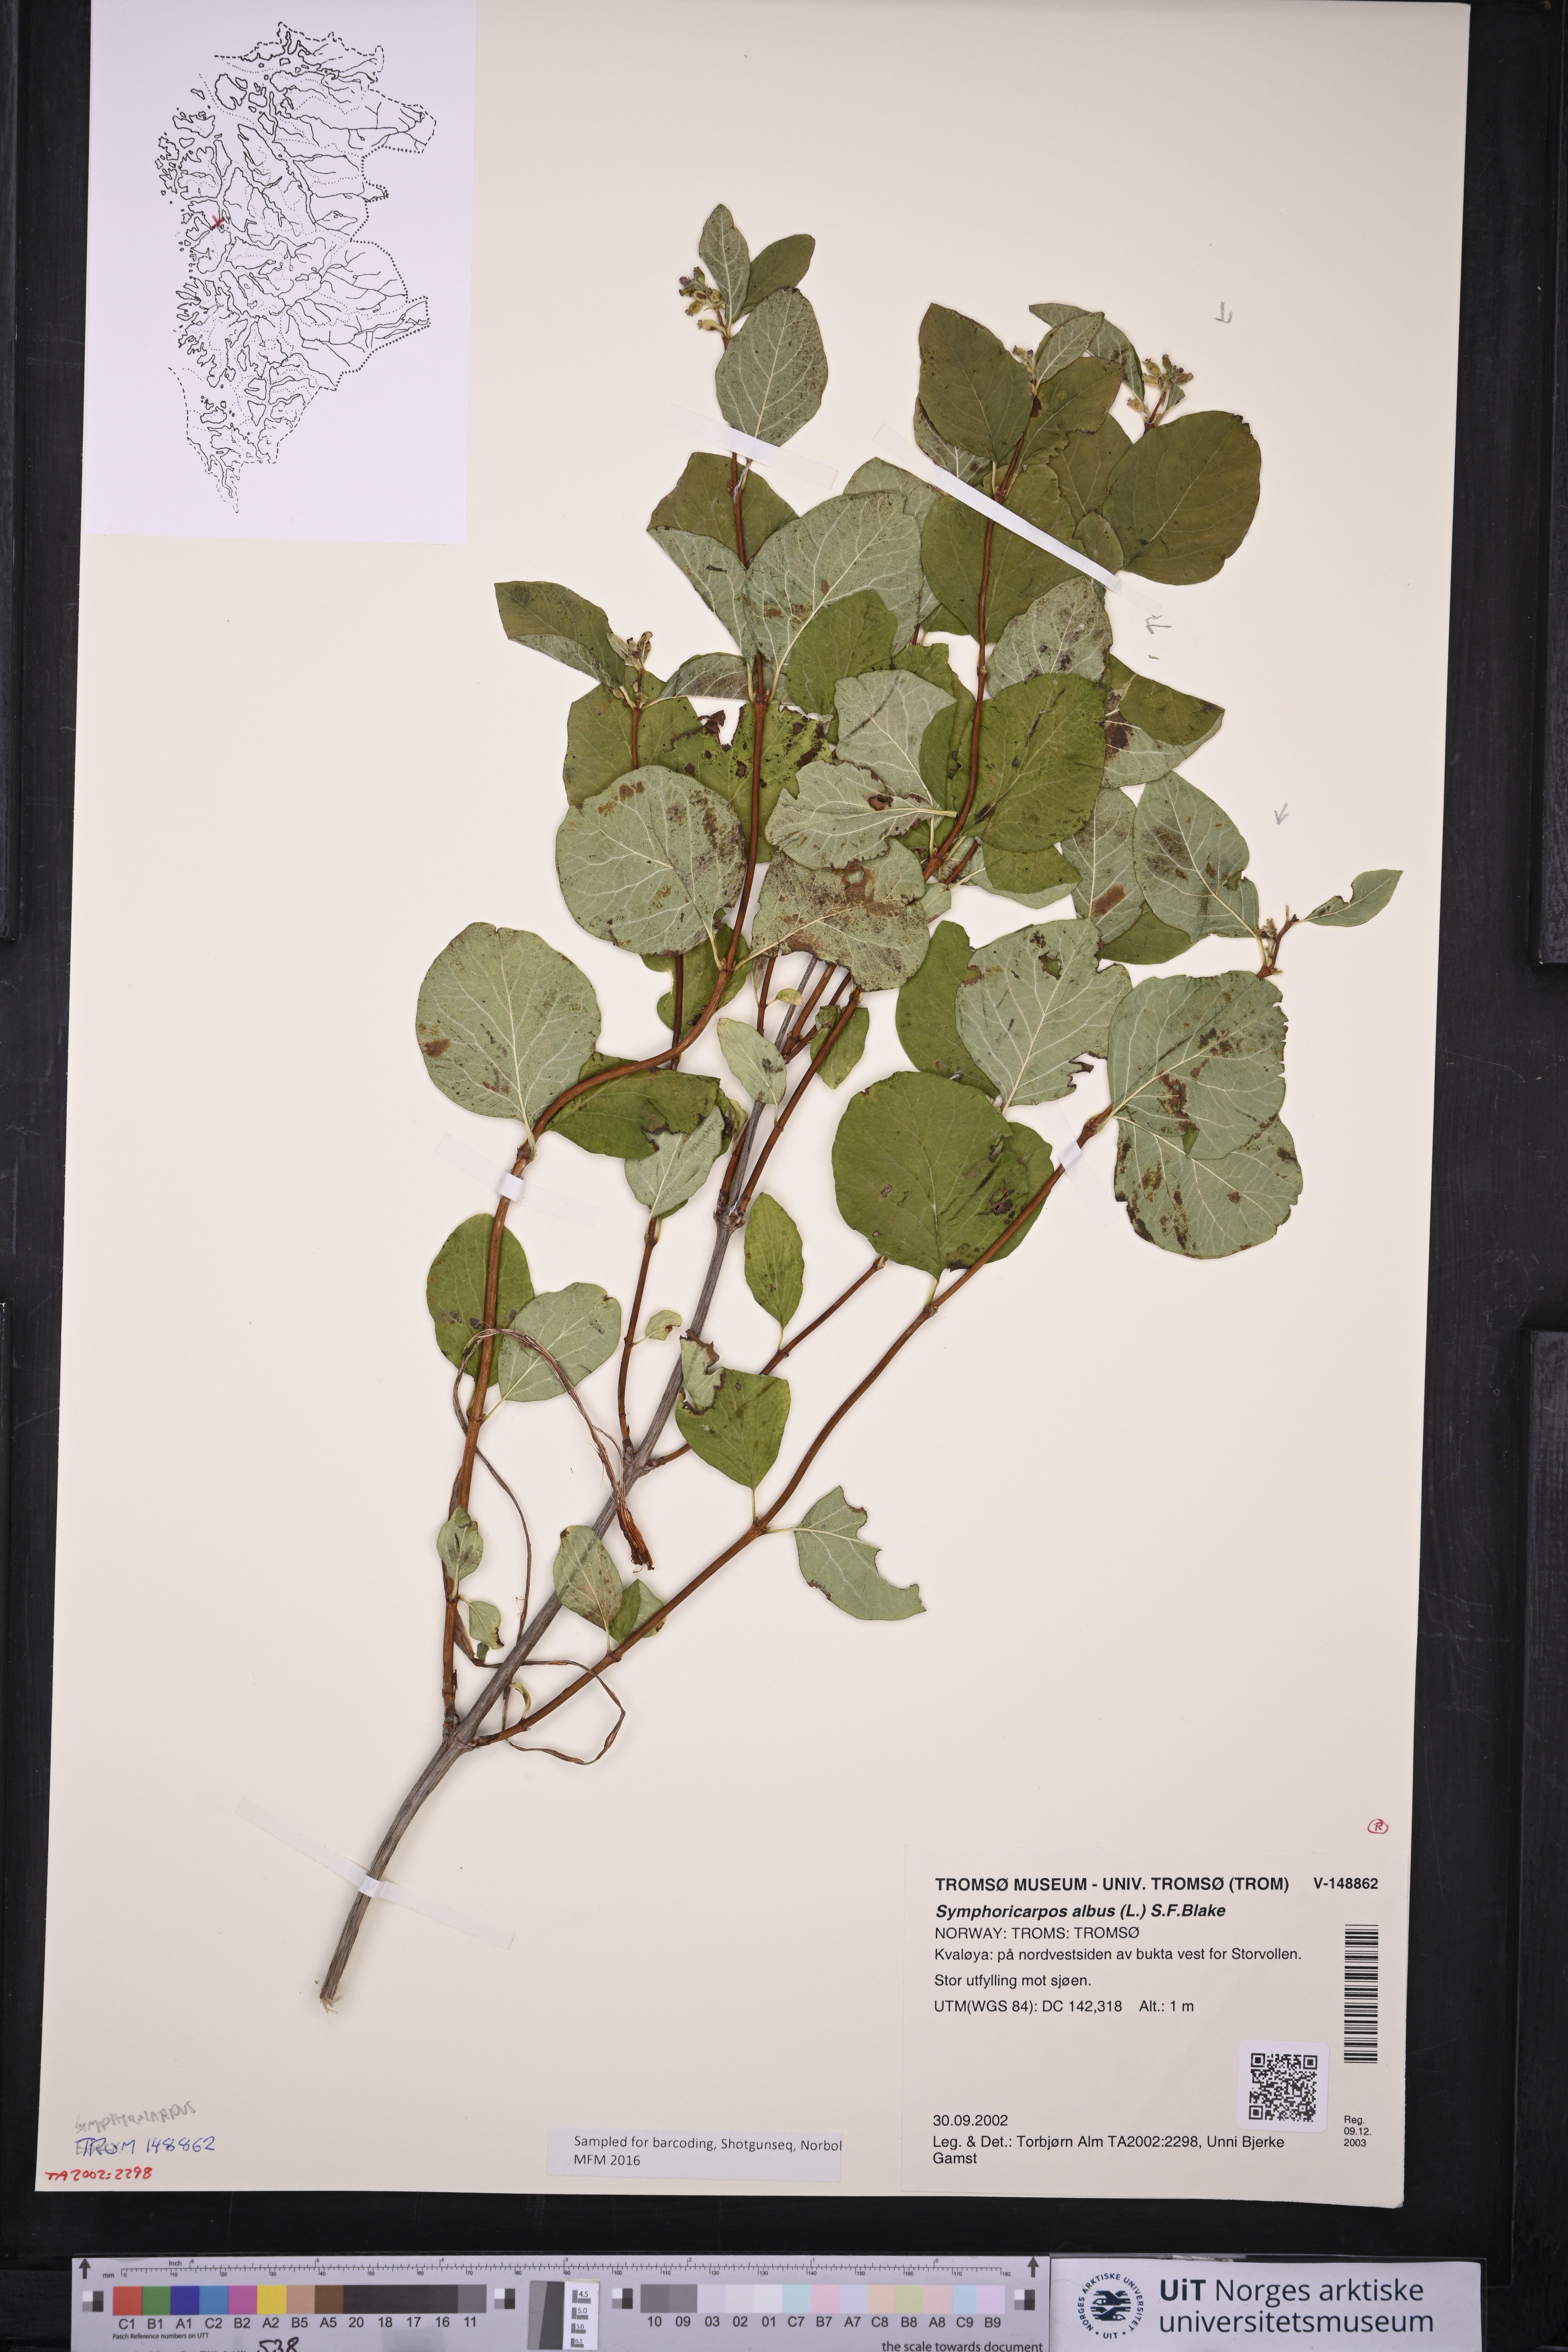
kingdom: Plantae
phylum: Tracheophyta
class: Magnoliopsida
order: Dipsacales
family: Caprifoliaceae
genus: Symphoricarpos
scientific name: Symphoricarpos albus
